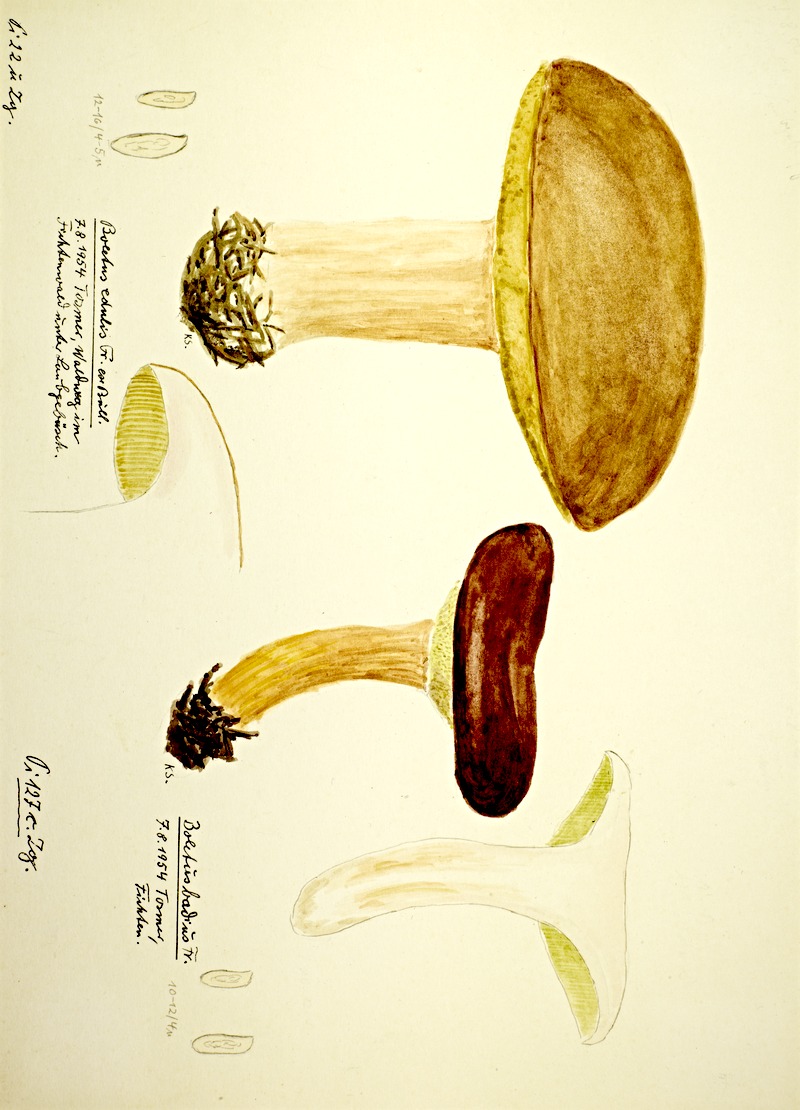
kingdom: Fungi
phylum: Basidiomycota
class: Agaricomycetes
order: Boletales
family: Boletaceae
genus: Boletus
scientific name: Boletus edulis
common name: Cep
